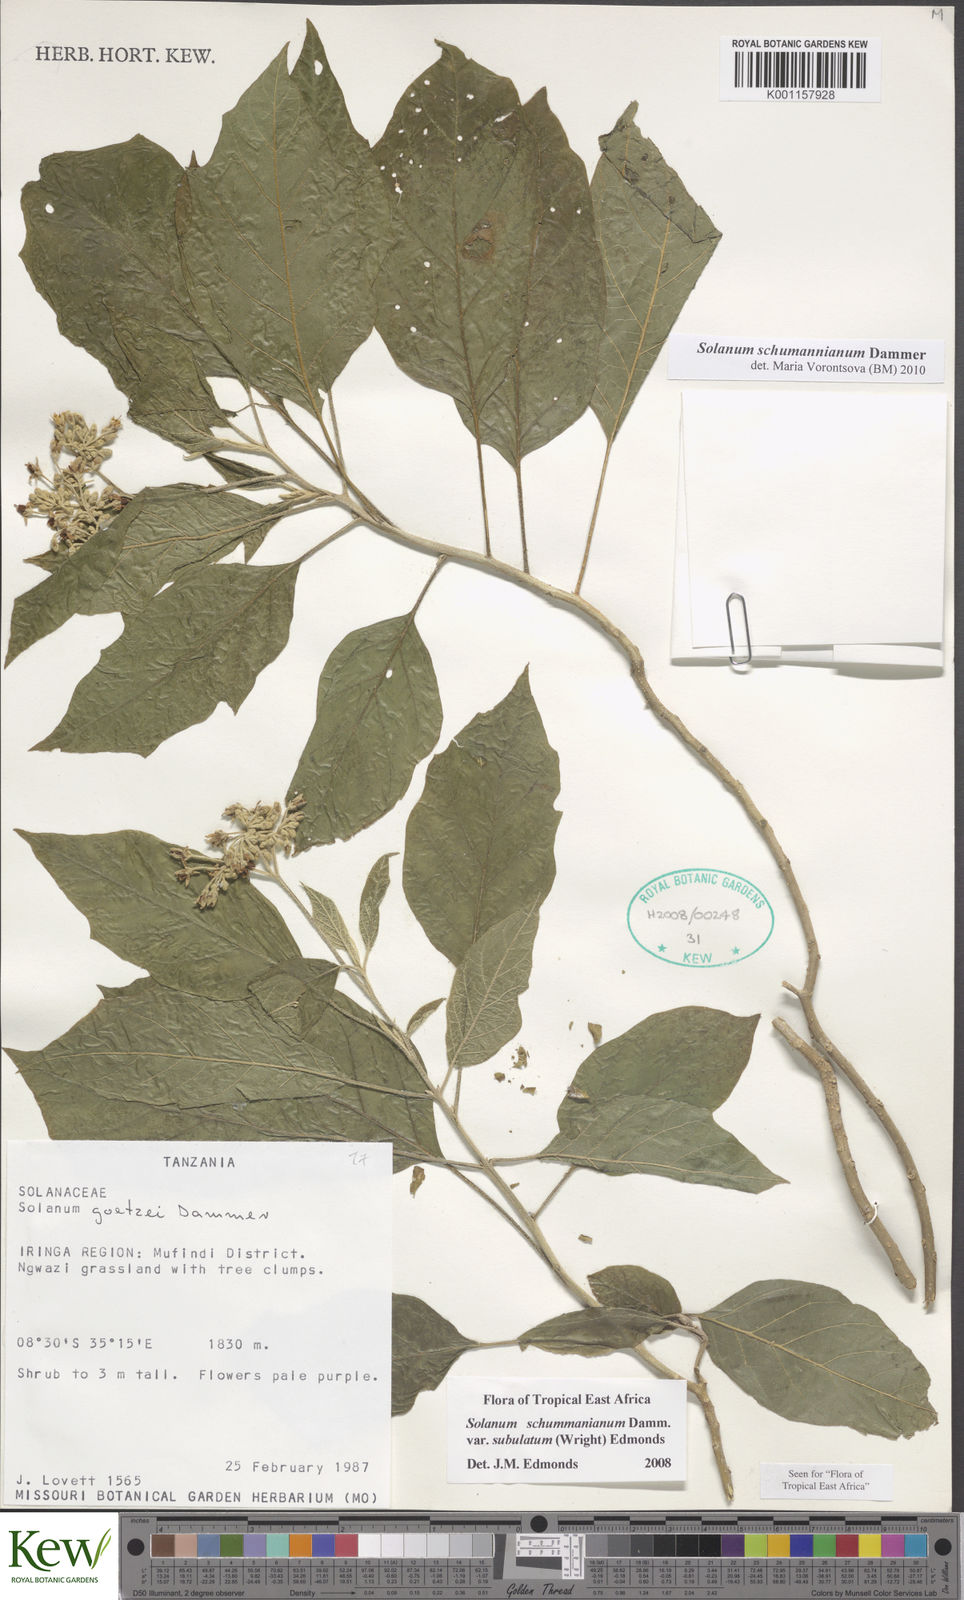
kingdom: Plantae
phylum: Tracheophyta
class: Magnoliopsida
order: Solanales
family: Solanaceae
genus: Solanum
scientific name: Solanum schumannianum
